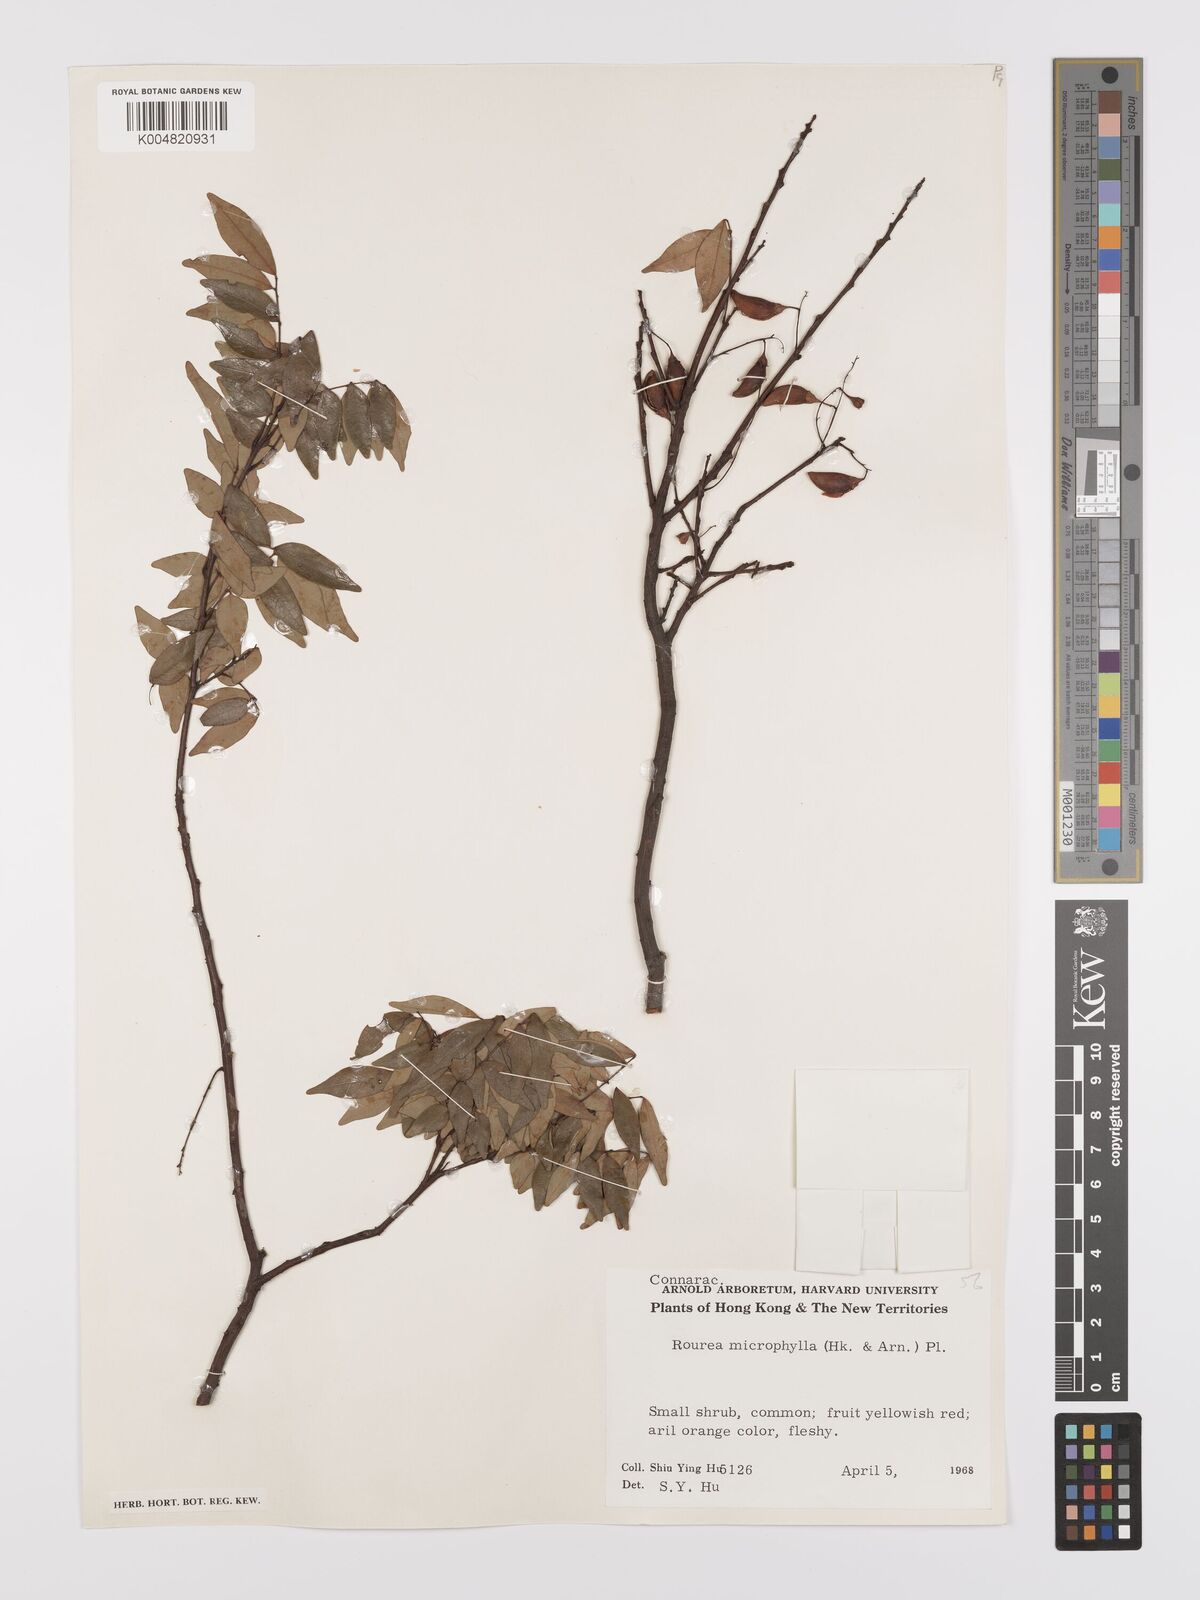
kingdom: Plantae
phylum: Tracheophyta
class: Magnoliopsida
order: Oxalidales
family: Connaraceae
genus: Rourea
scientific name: Rourea microphylla
